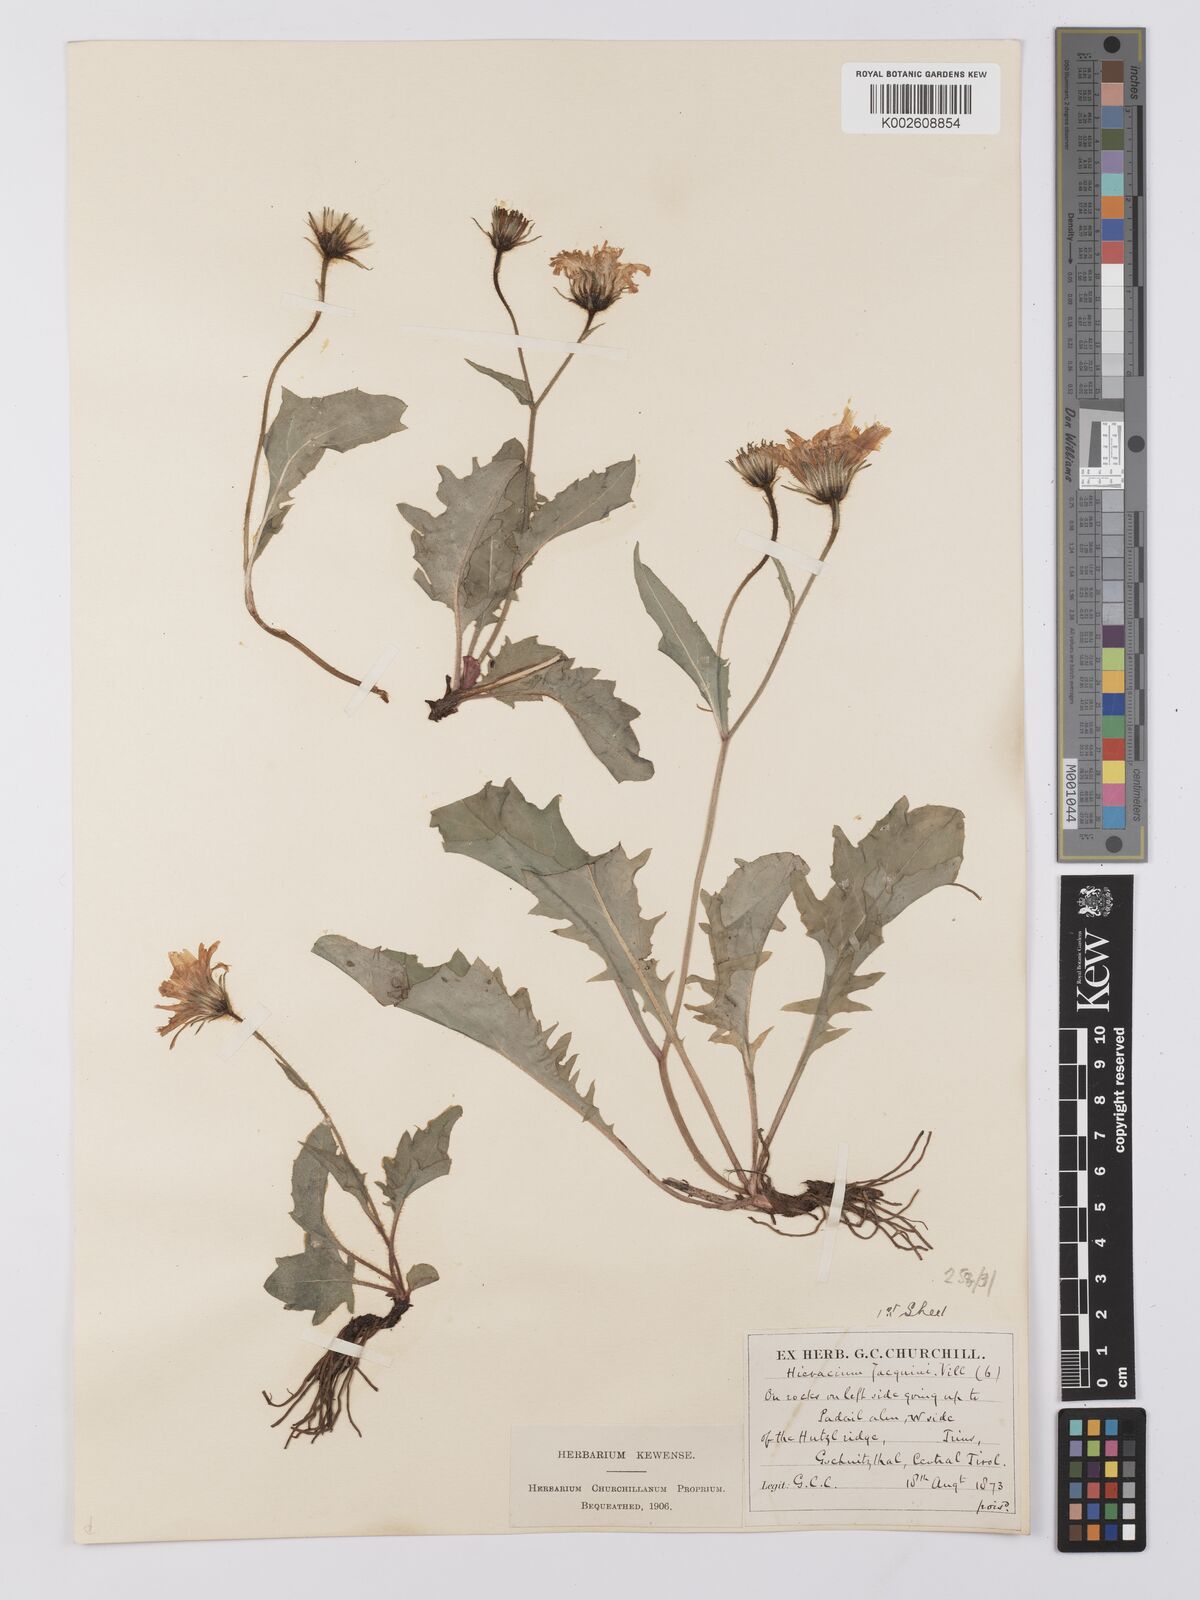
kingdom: Plantae
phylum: Tracheophyta
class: Magnoliopsida
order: Asterales
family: Asteraceae
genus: Hieracium
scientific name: Hieracium valoddae
